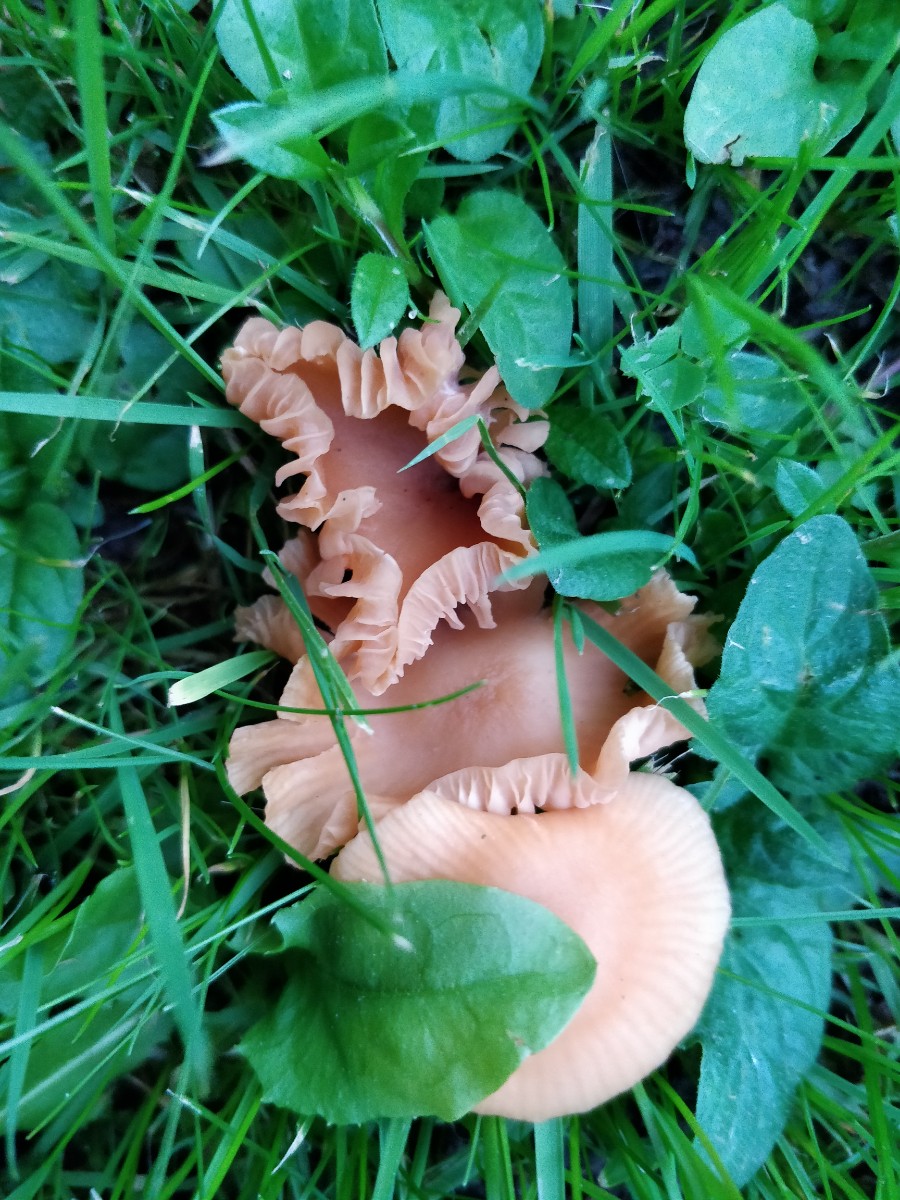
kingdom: Fungi
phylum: Basidiomycota
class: Agaricomycetes
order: Agaricales
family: Hydnangiaceae
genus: Laccaria
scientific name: Laccaria laccata
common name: rød ametysthat
